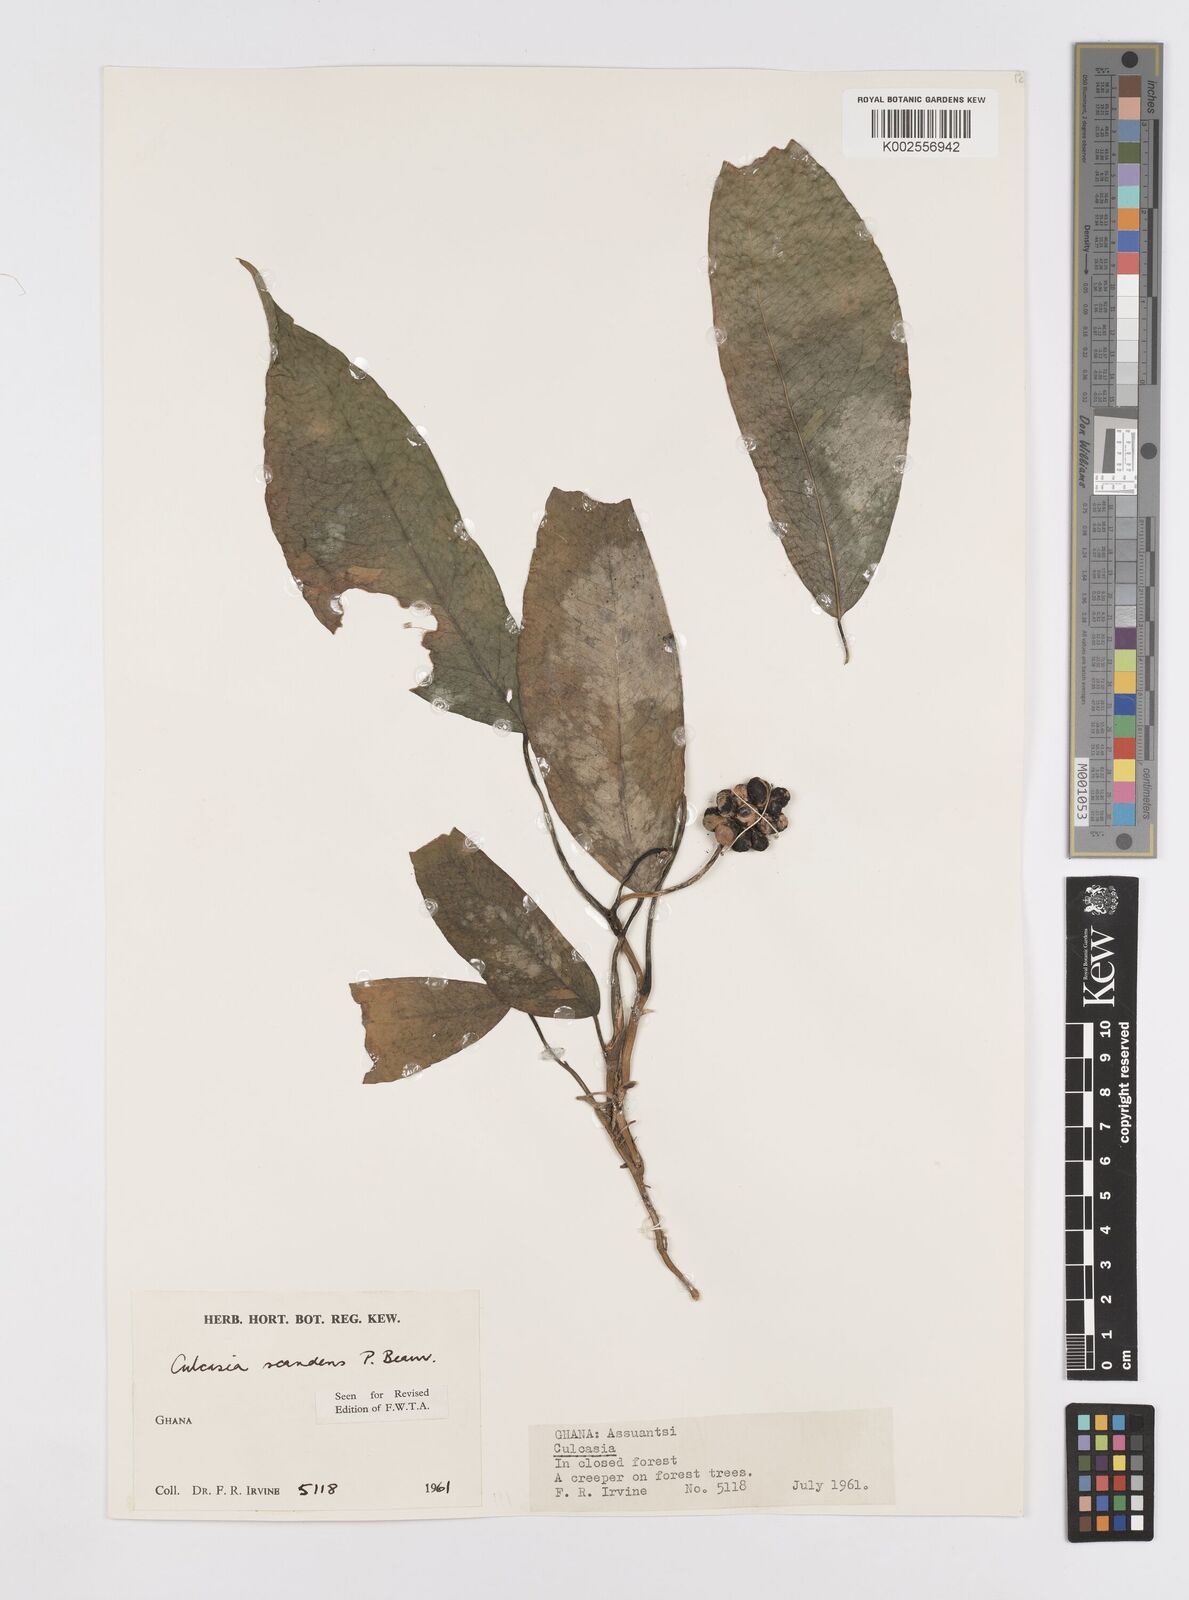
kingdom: Plantae
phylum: Tracheophyta
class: Liliopsida
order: Alismatales
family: Araceae
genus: Culcasia
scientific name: Culcasia scandens
